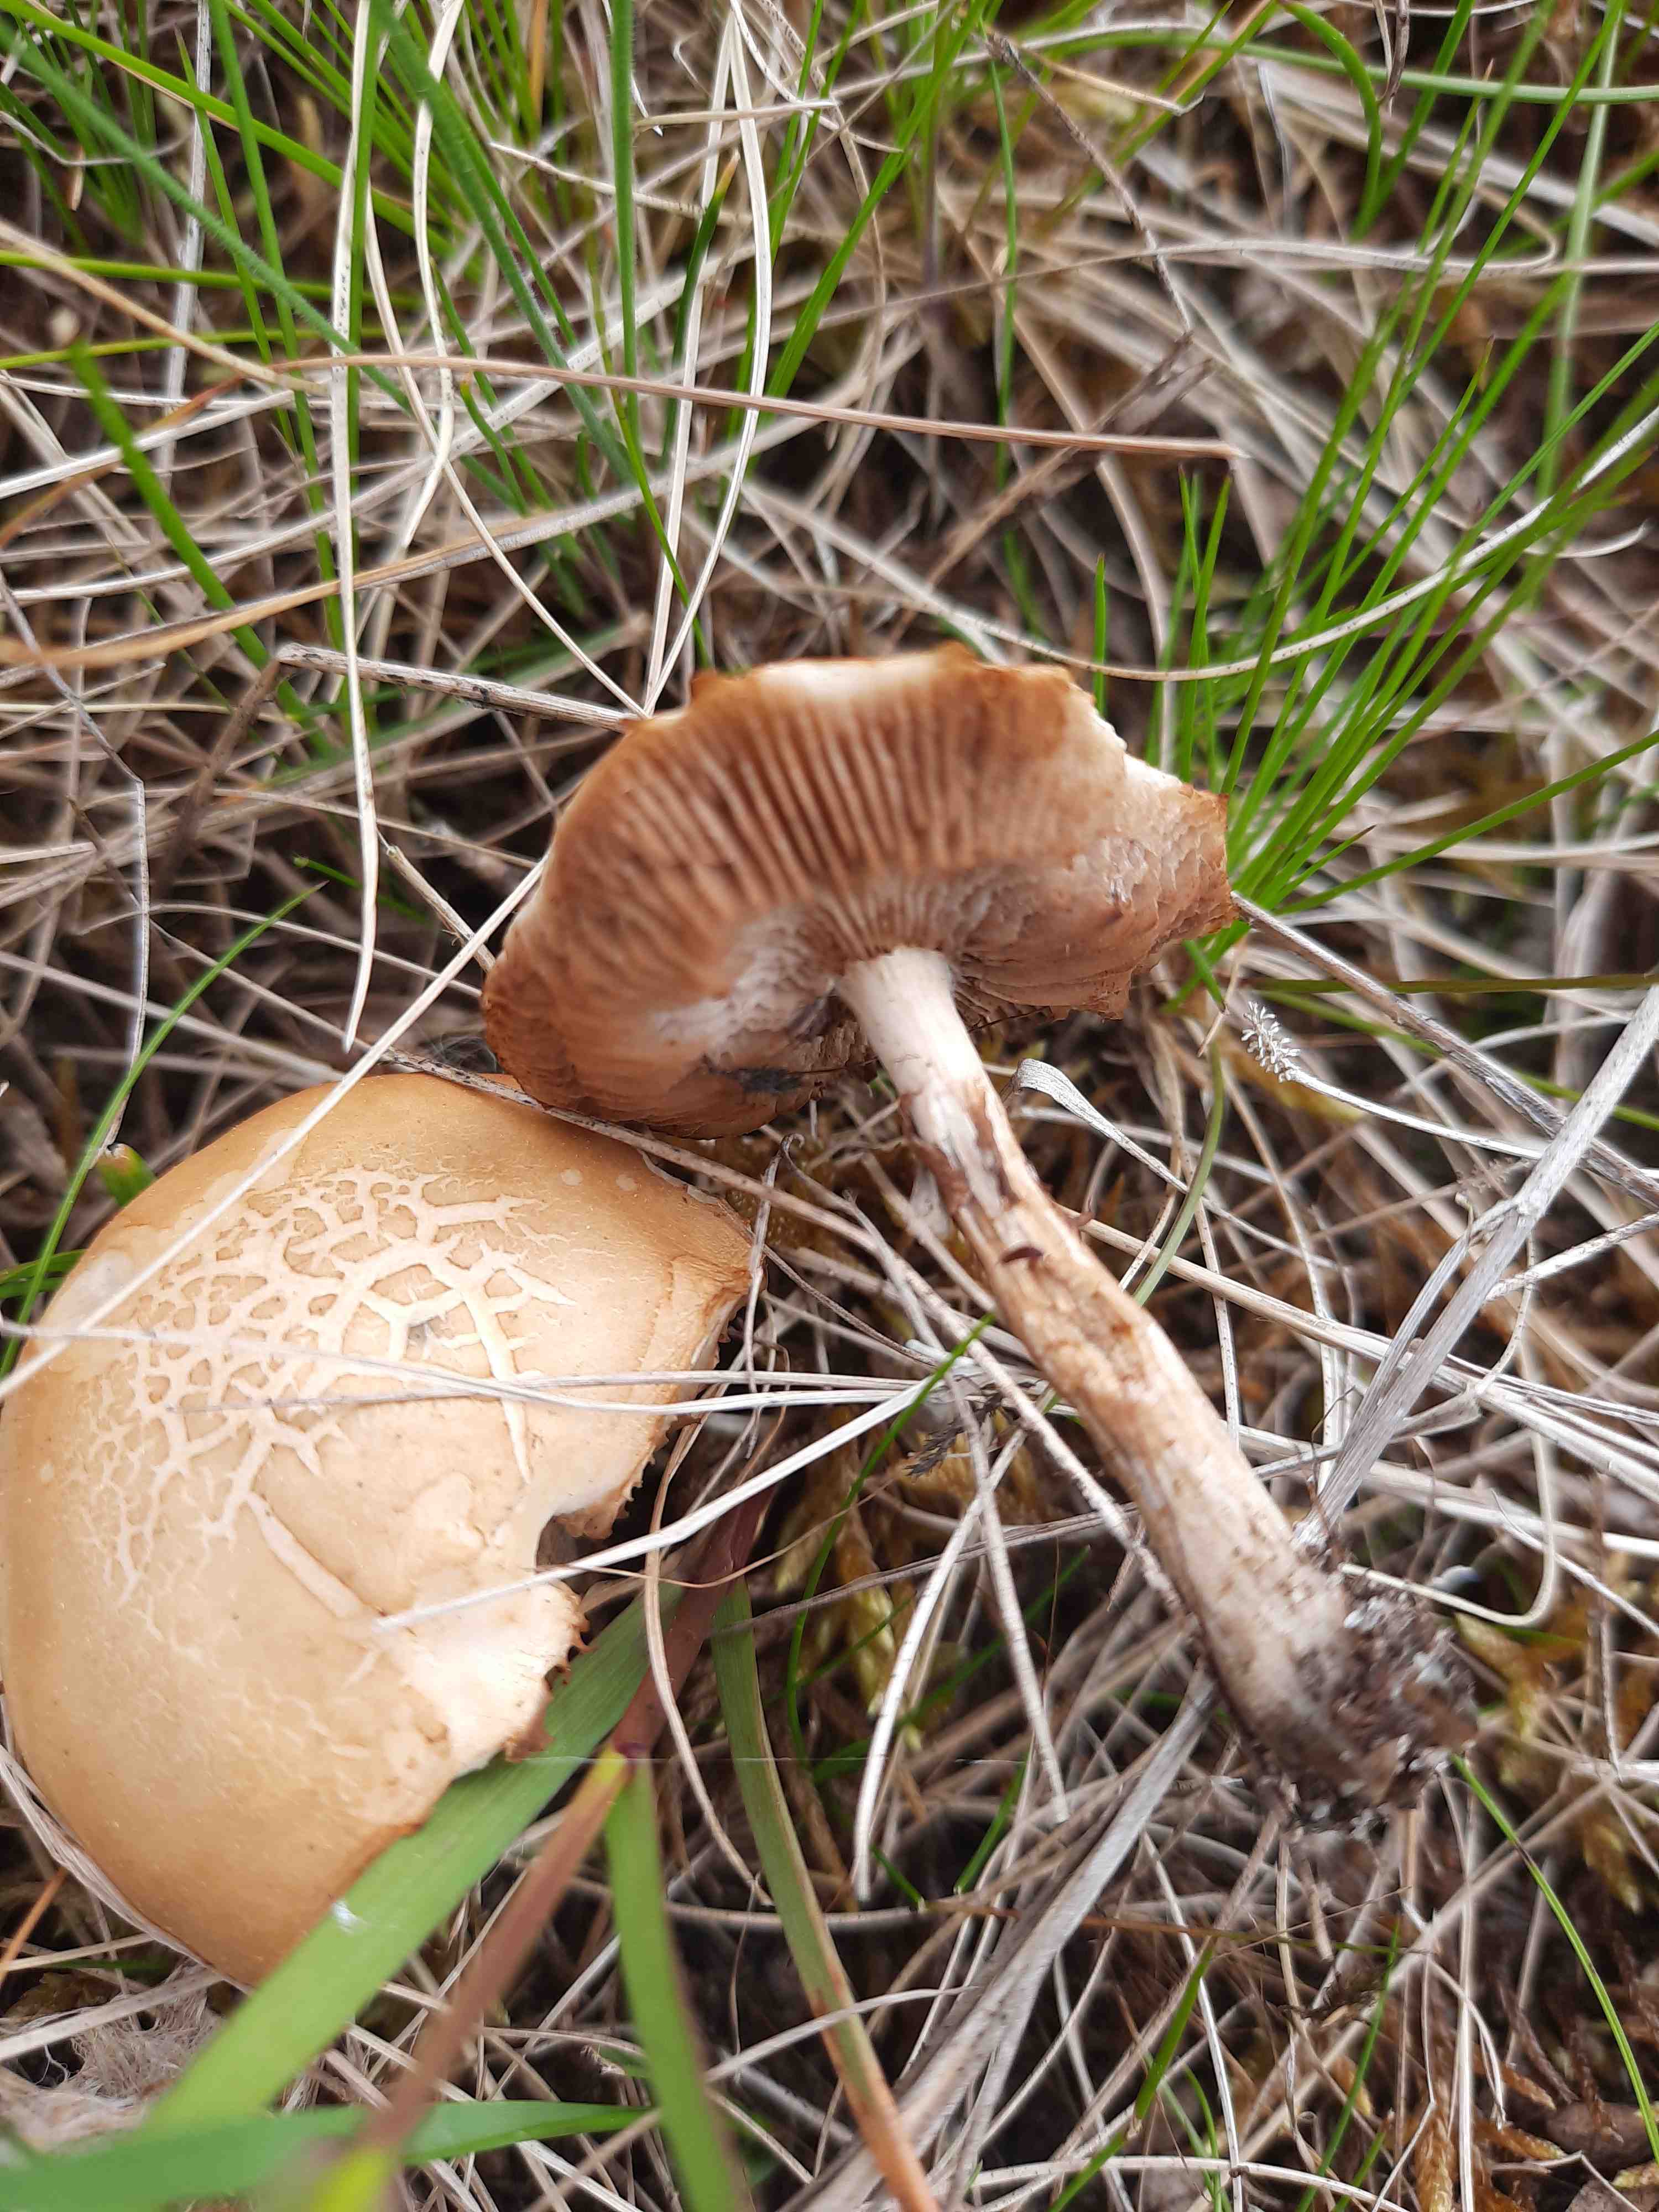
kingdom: Fungi
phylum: Basidiomycota
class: Agaricomycetes
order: Agaricales
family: Strophariaceae
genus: Agrocybe
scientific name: Agrocybe praecox
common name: tidlig agerhat
